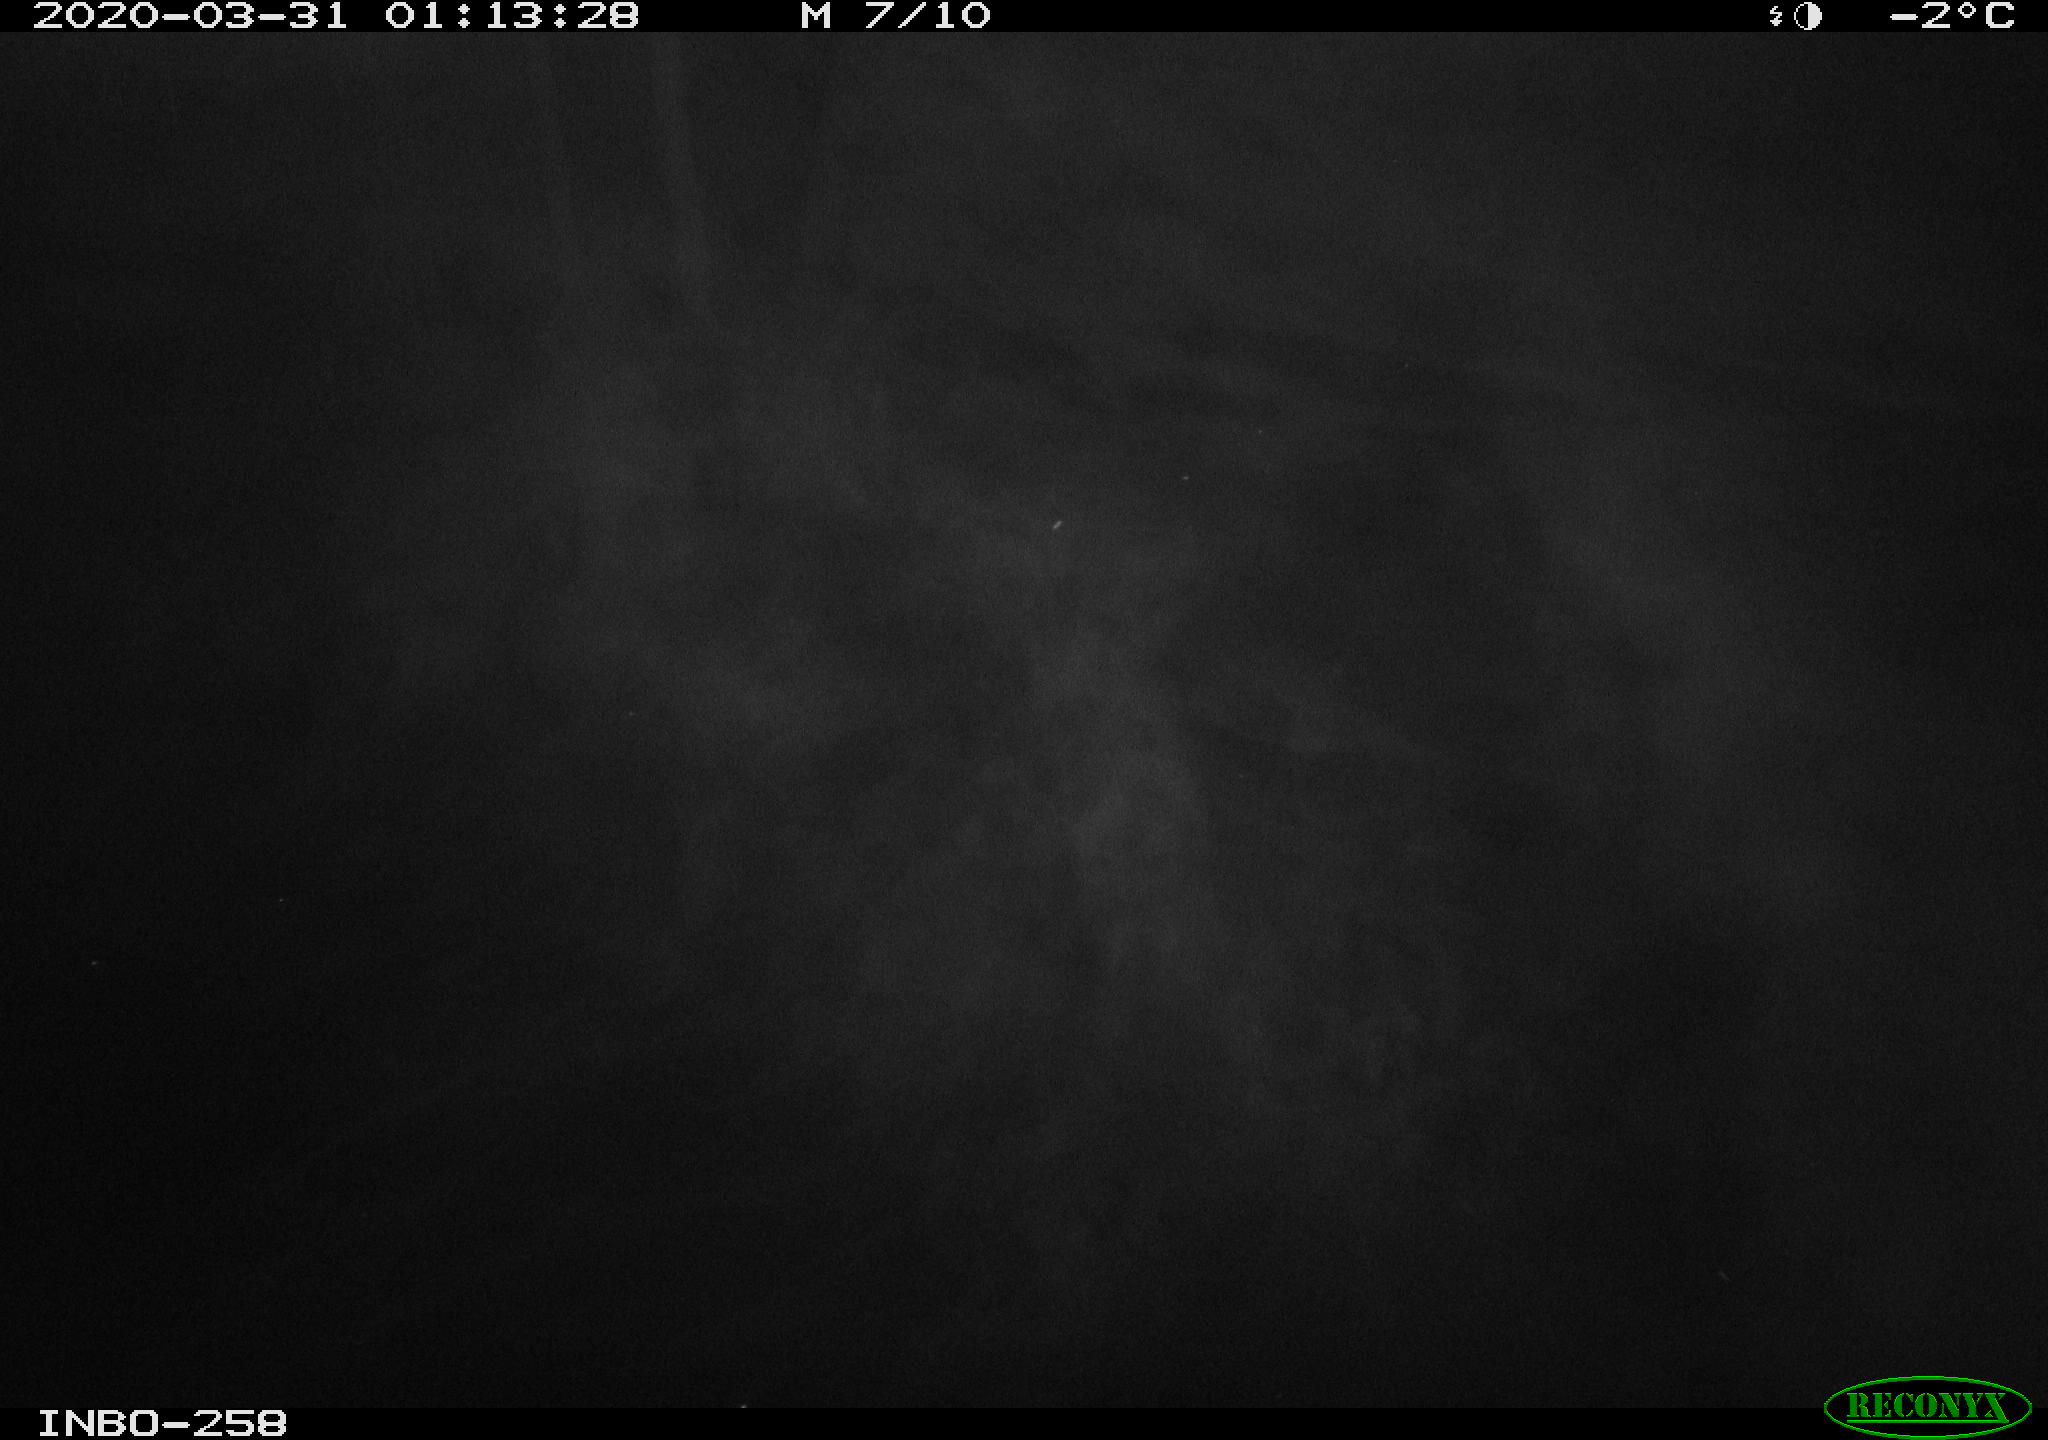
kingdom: Animalia
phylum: Chordata
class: Aves
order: Anseriformes
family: Anatidae
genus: Anas
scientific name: Anas platyrhynchos
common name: Mallard
